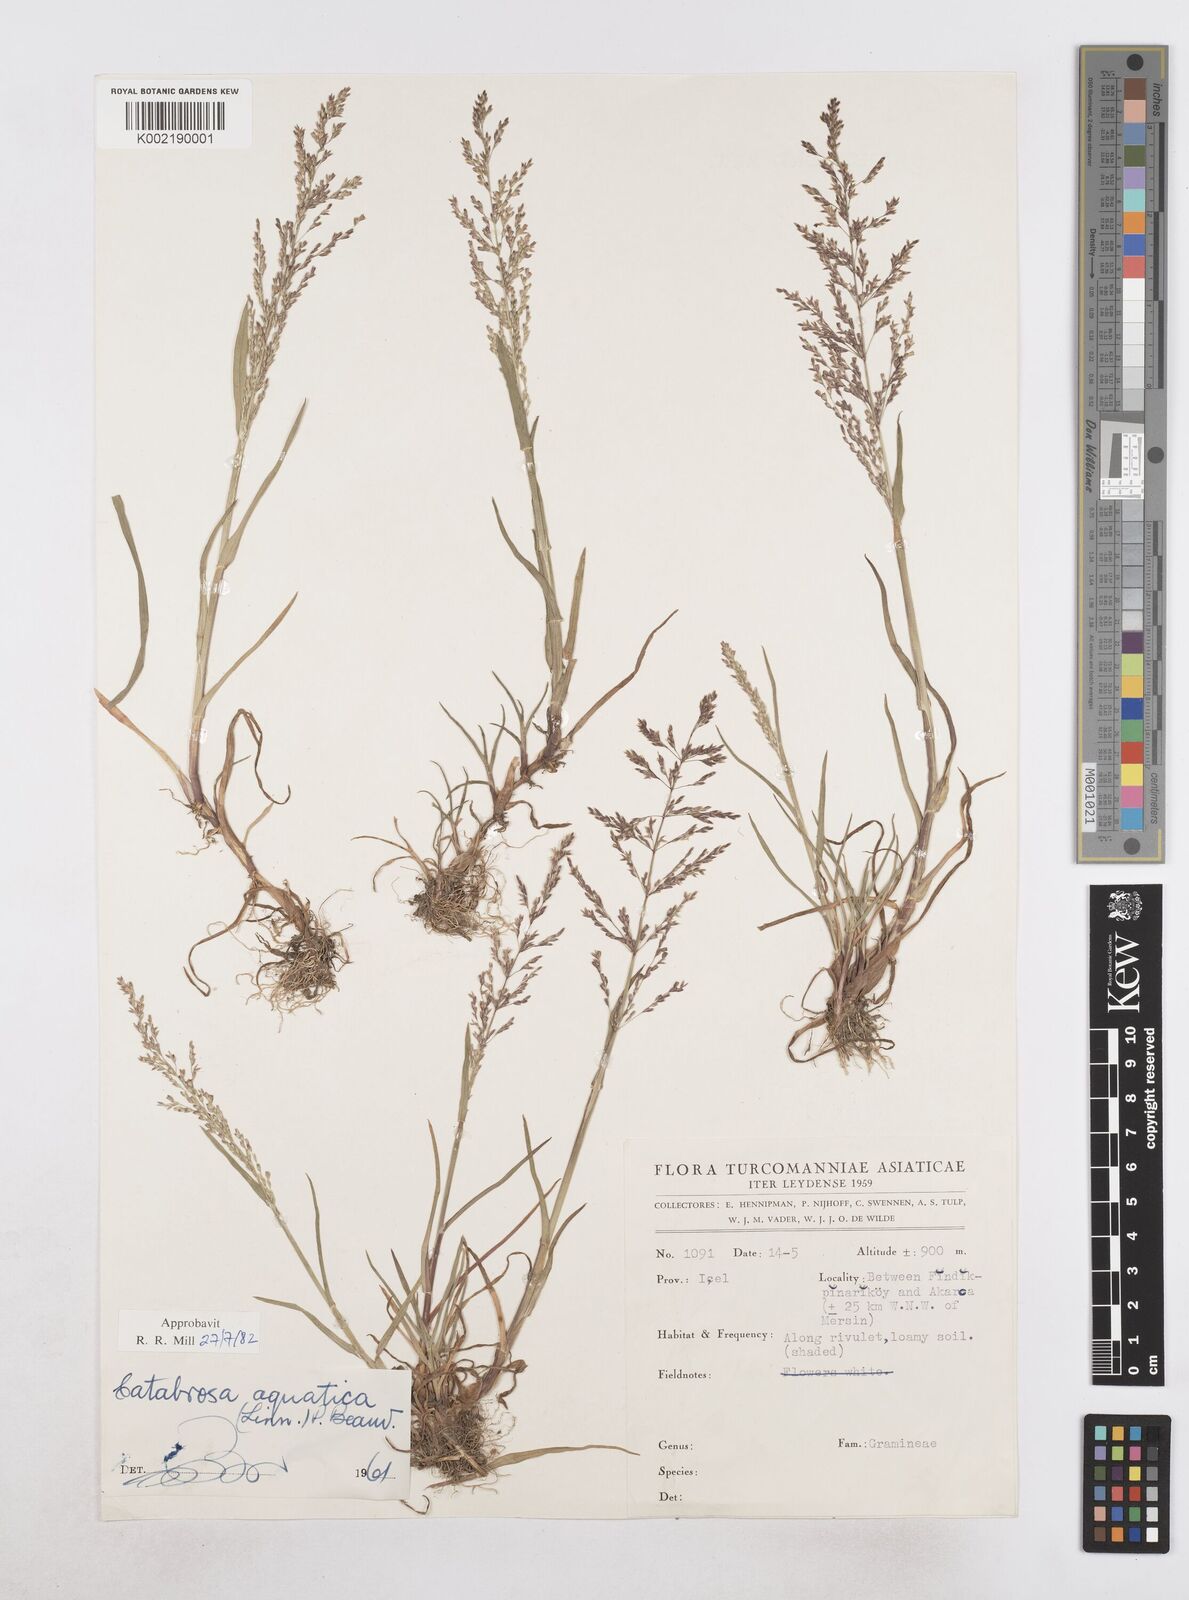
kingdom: Plantae
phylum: Tracheophyta
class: Liliopsida
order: Poales
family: Poaceae
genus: Catabrosa
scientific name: Catabrosa aquatica
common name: Whorl-grass
